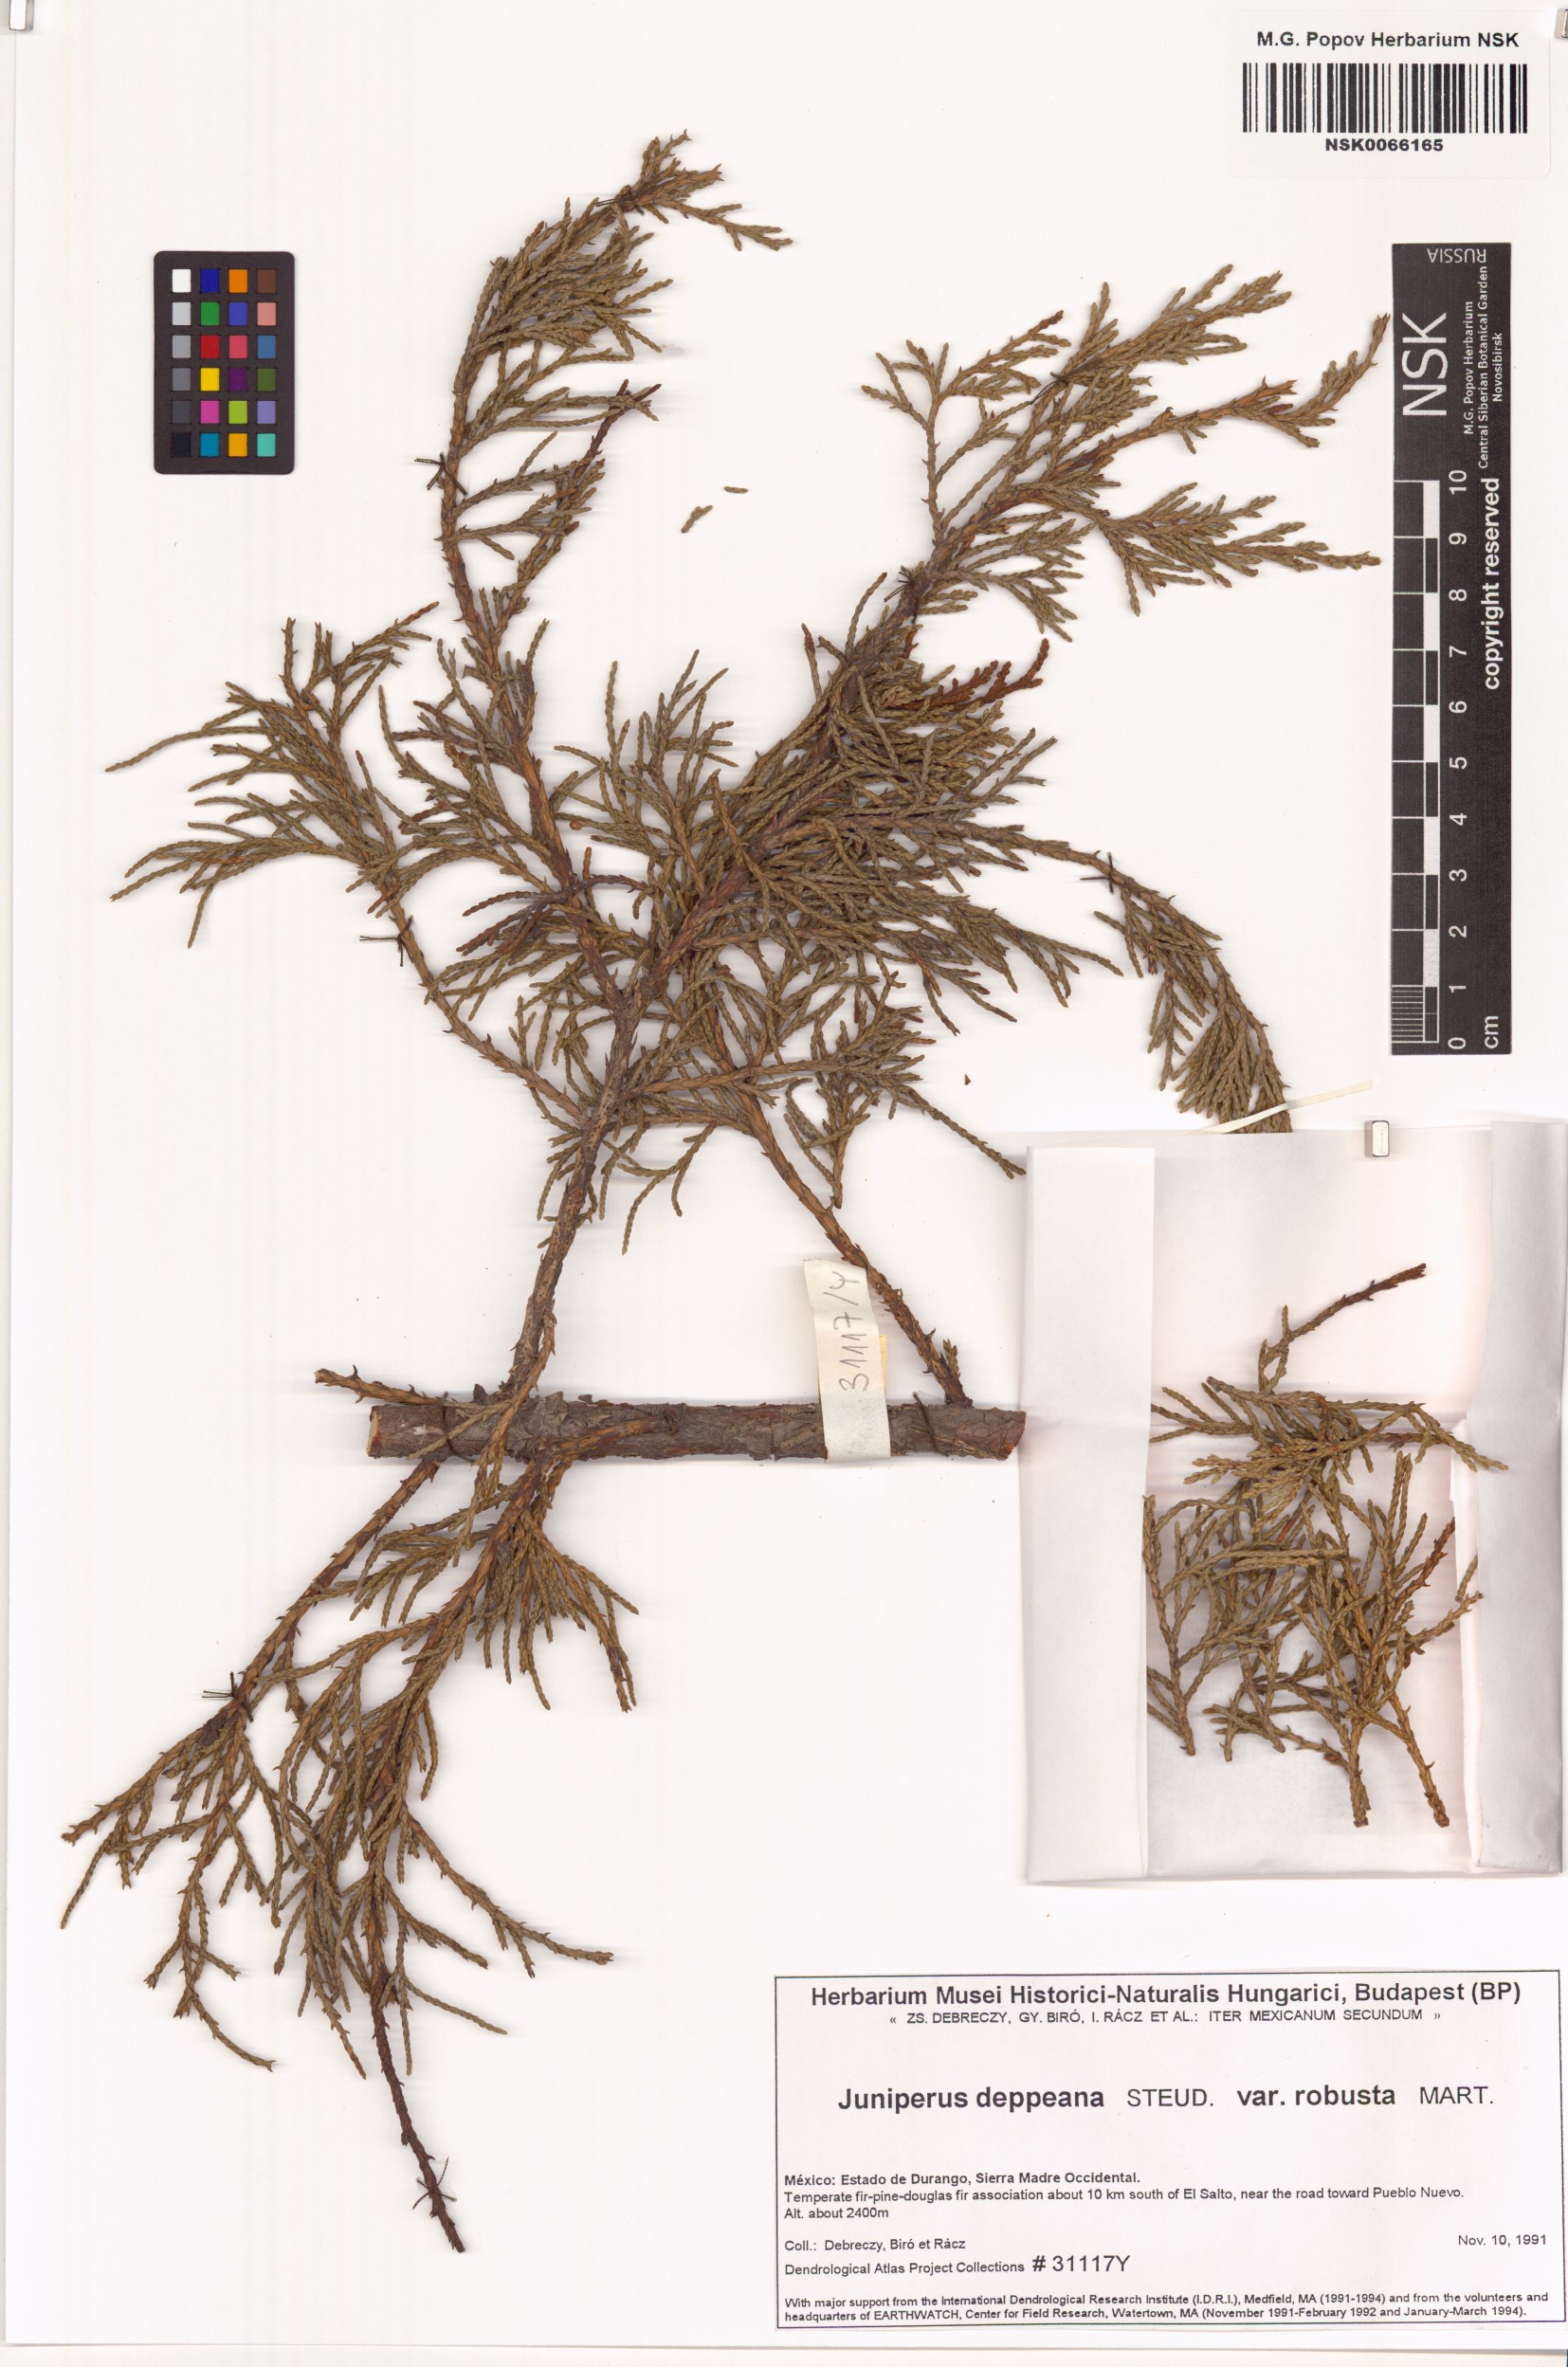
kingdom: Plantae
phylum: Tracheophyta
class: Pinopsida
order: Pinales
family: Cupressaceae
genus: Juniperus
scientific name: Juniperus deppeana
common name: Alligator juniper
